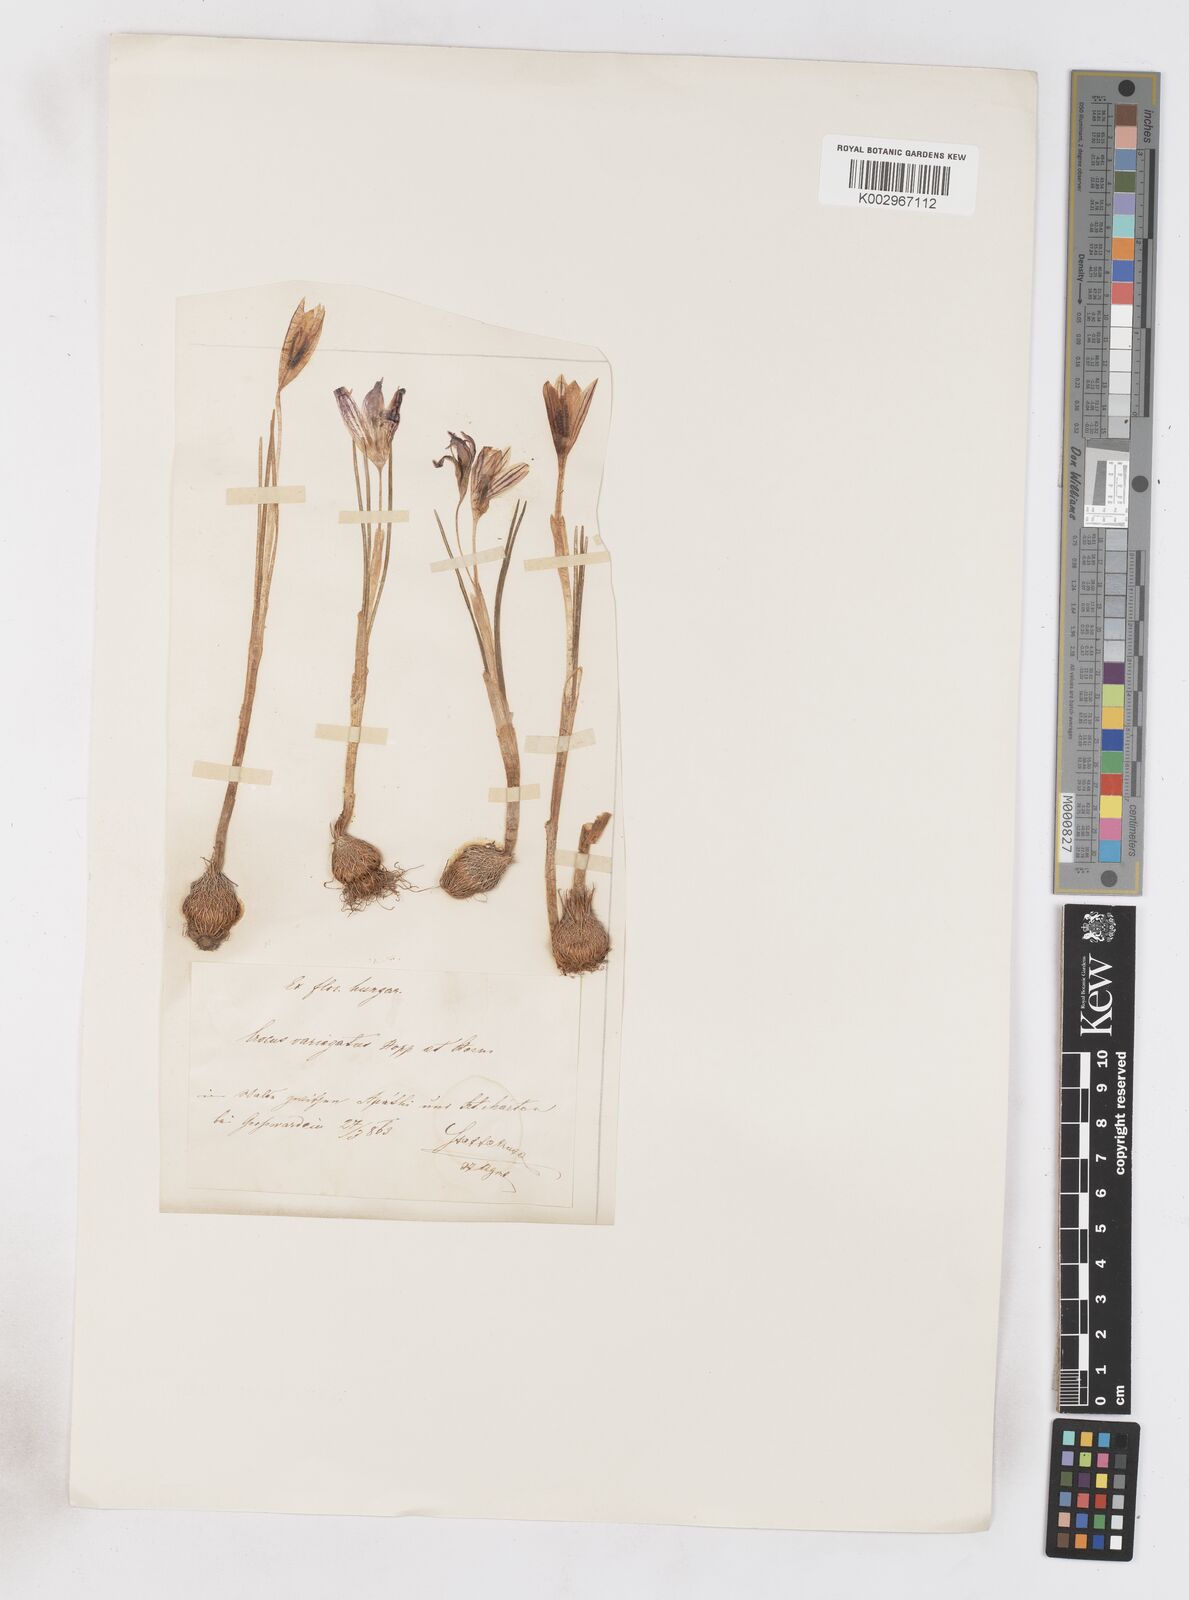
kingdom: Plantae
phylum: Tracheophyta
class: Liliopsida
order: Asparagales
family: Iridaceae
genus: Crocus
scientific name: Crocus reticulatus
